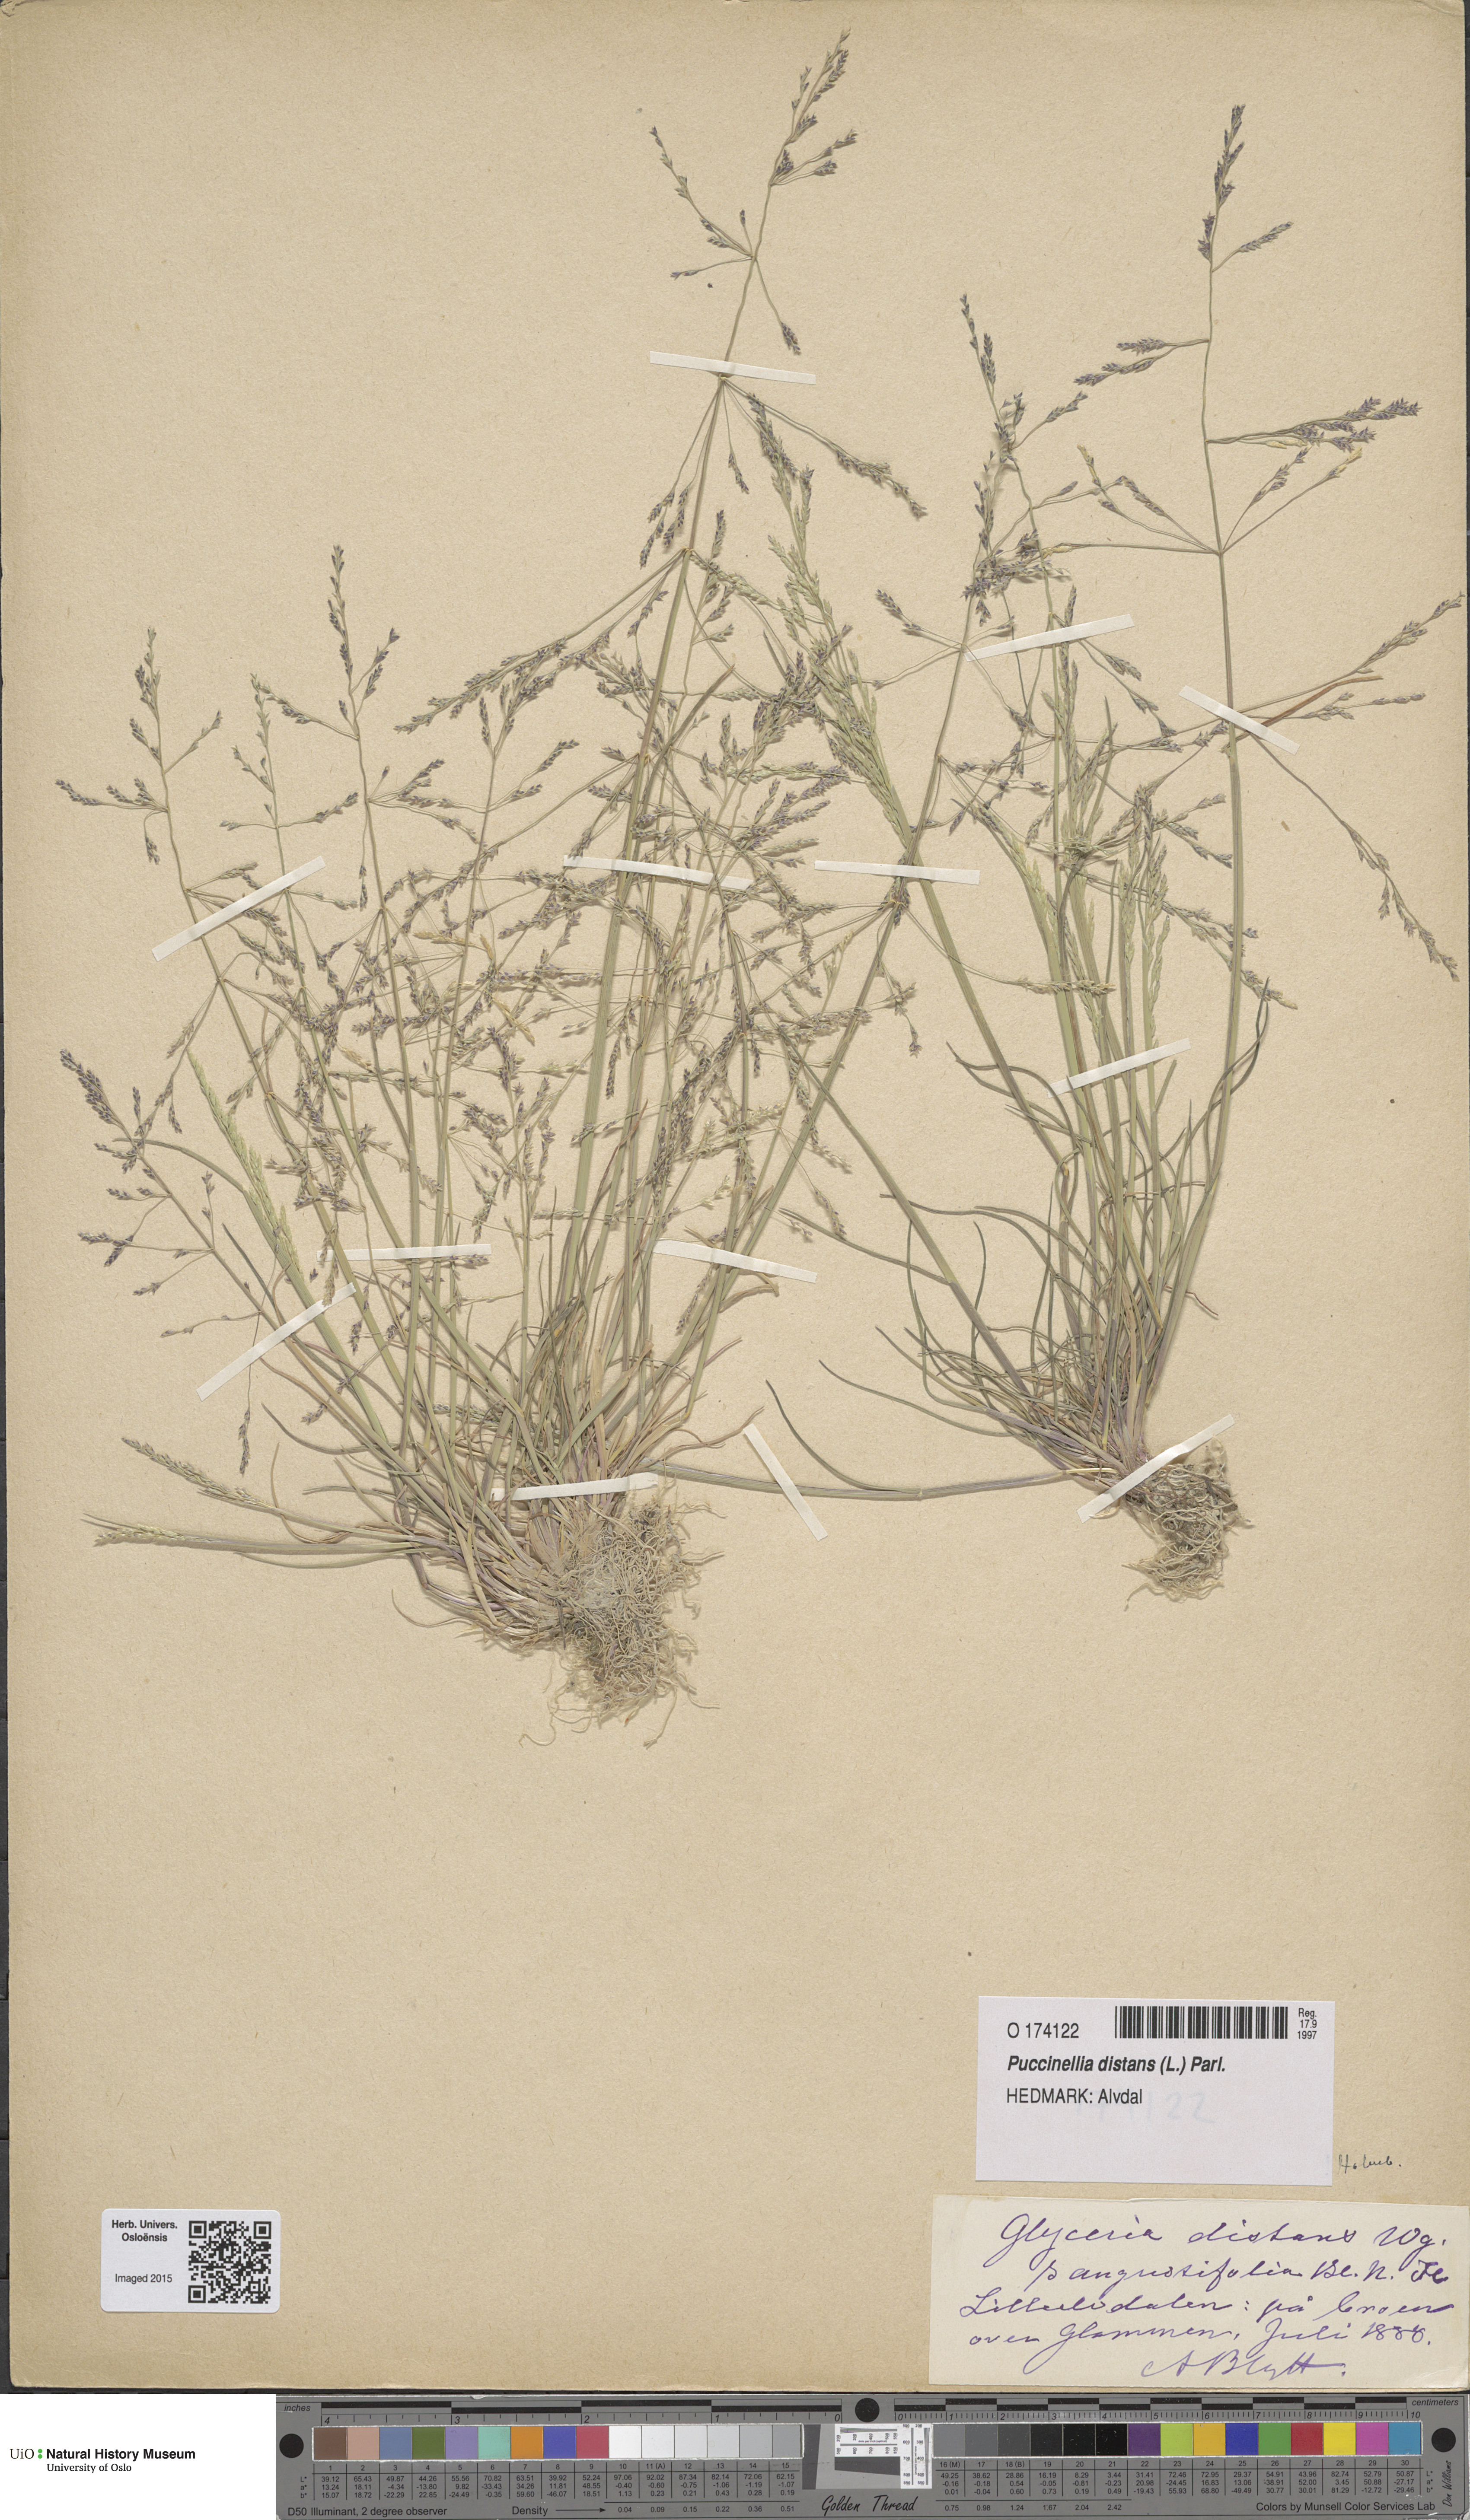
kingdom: Plantae
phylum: Tracheophyta
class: Liliopsida
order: Poales
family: Poaceae
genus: Puccinellia
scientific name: Puccinellia distans
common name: Weeping alkaligrass
